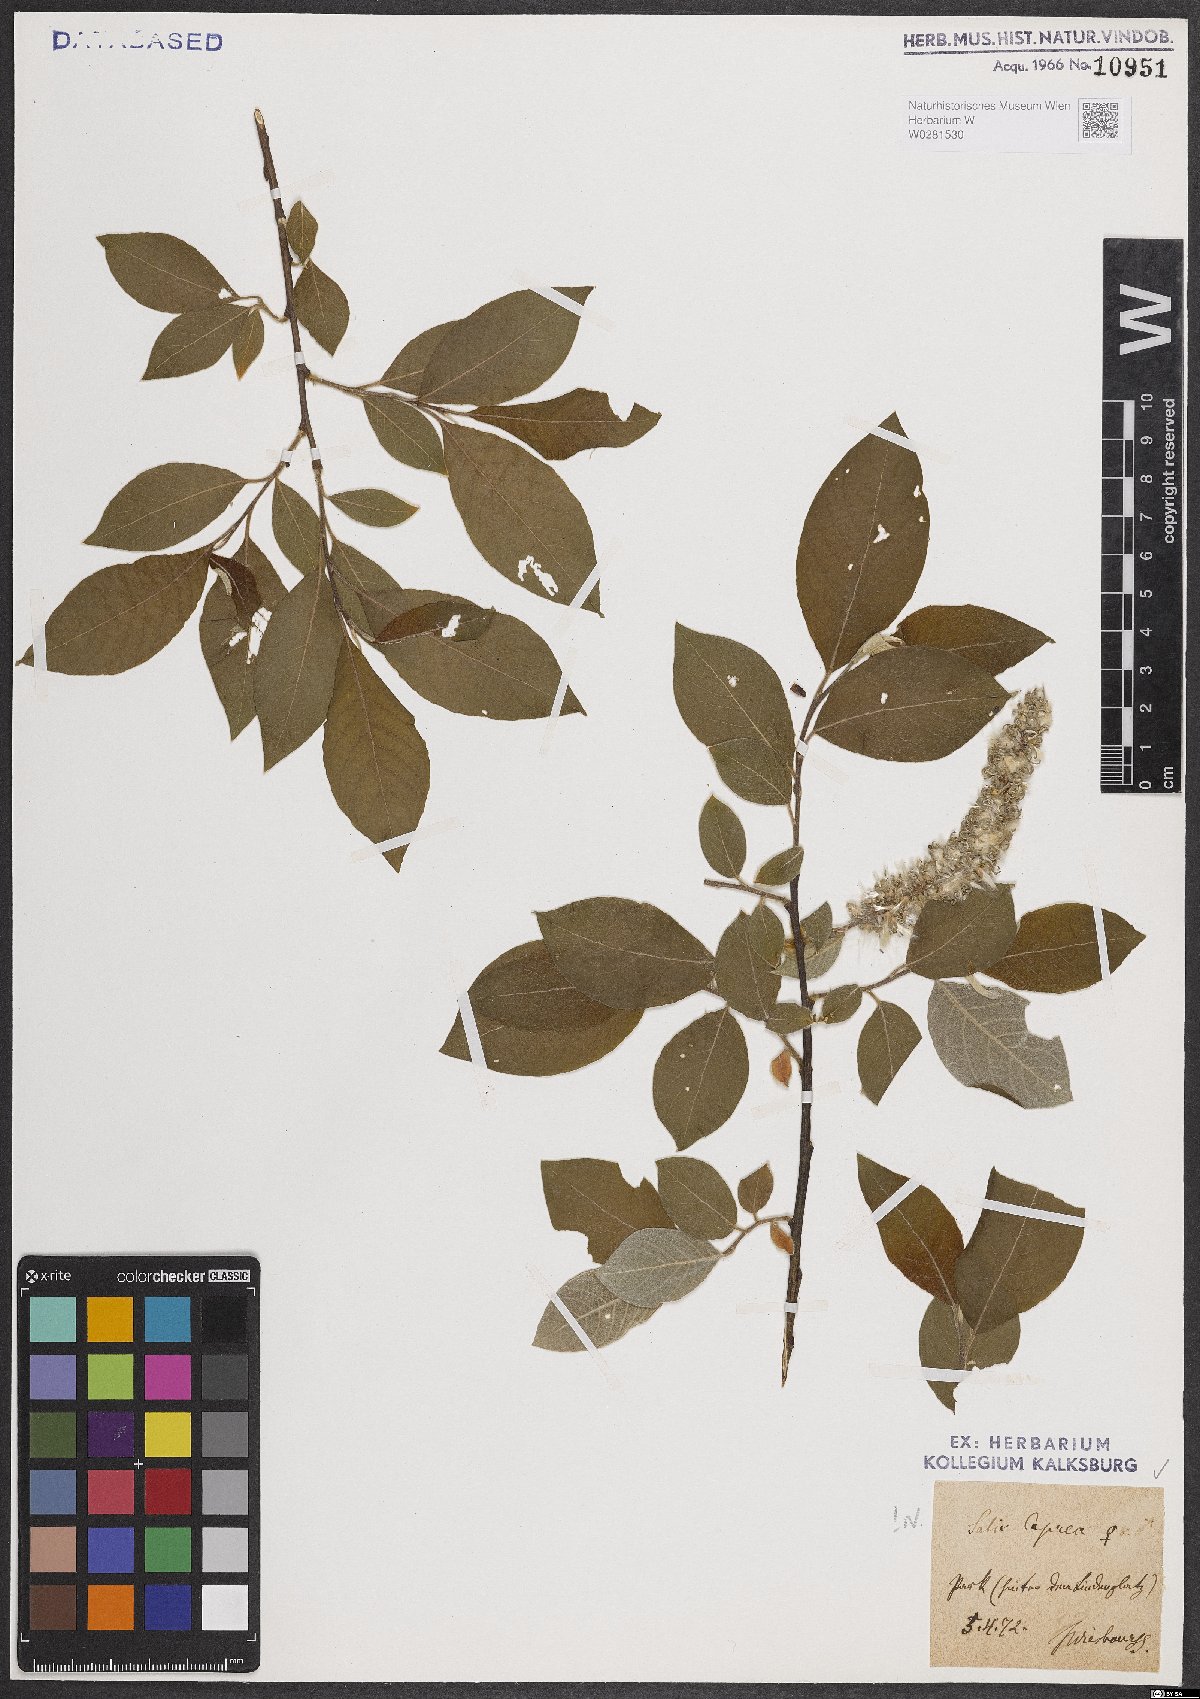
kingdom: Plantae
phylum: Tracheophyta
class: Magnoliopsida
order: Malpighiales
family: Salicaceae
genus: Salix
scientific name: Salix caprea
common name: Goat willow
